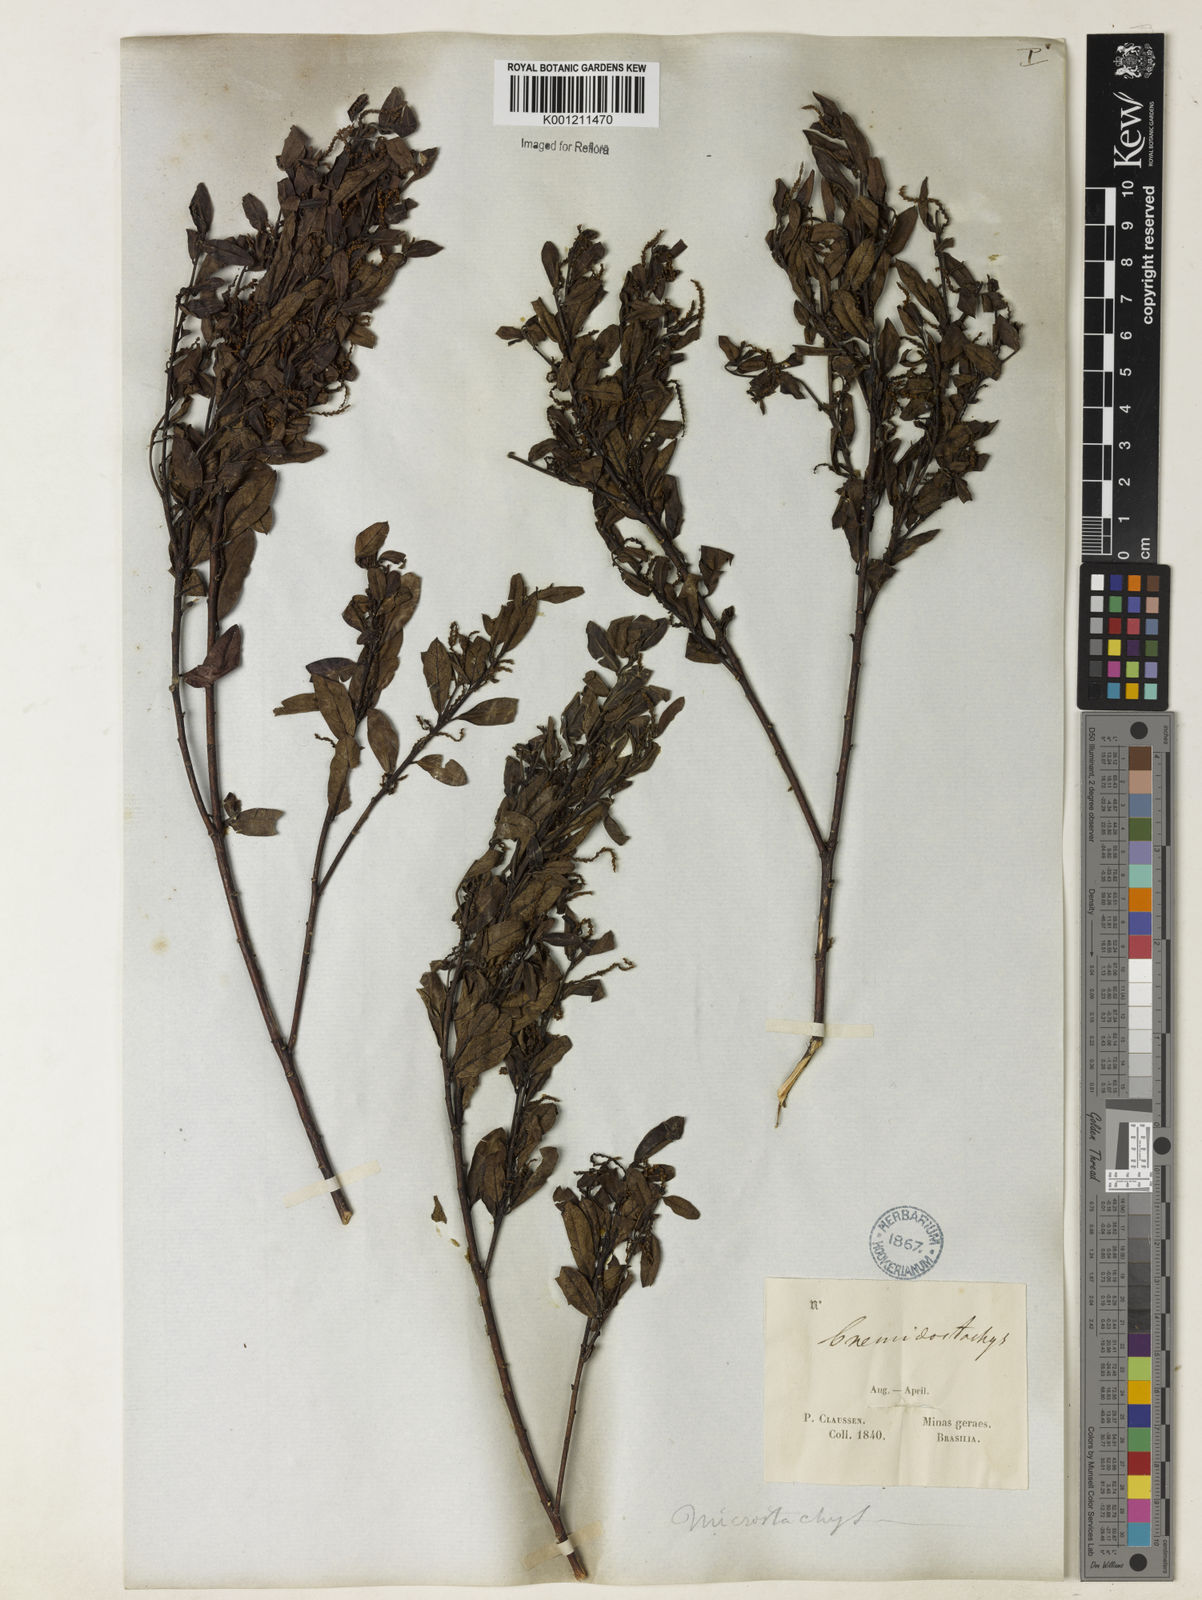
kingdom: Plantae
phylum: Tracheophyta
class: Magnoliopsida
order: Malpighiales
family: Euphorbiaceae
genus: Microstachys
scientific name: Microstachys glandulosa
